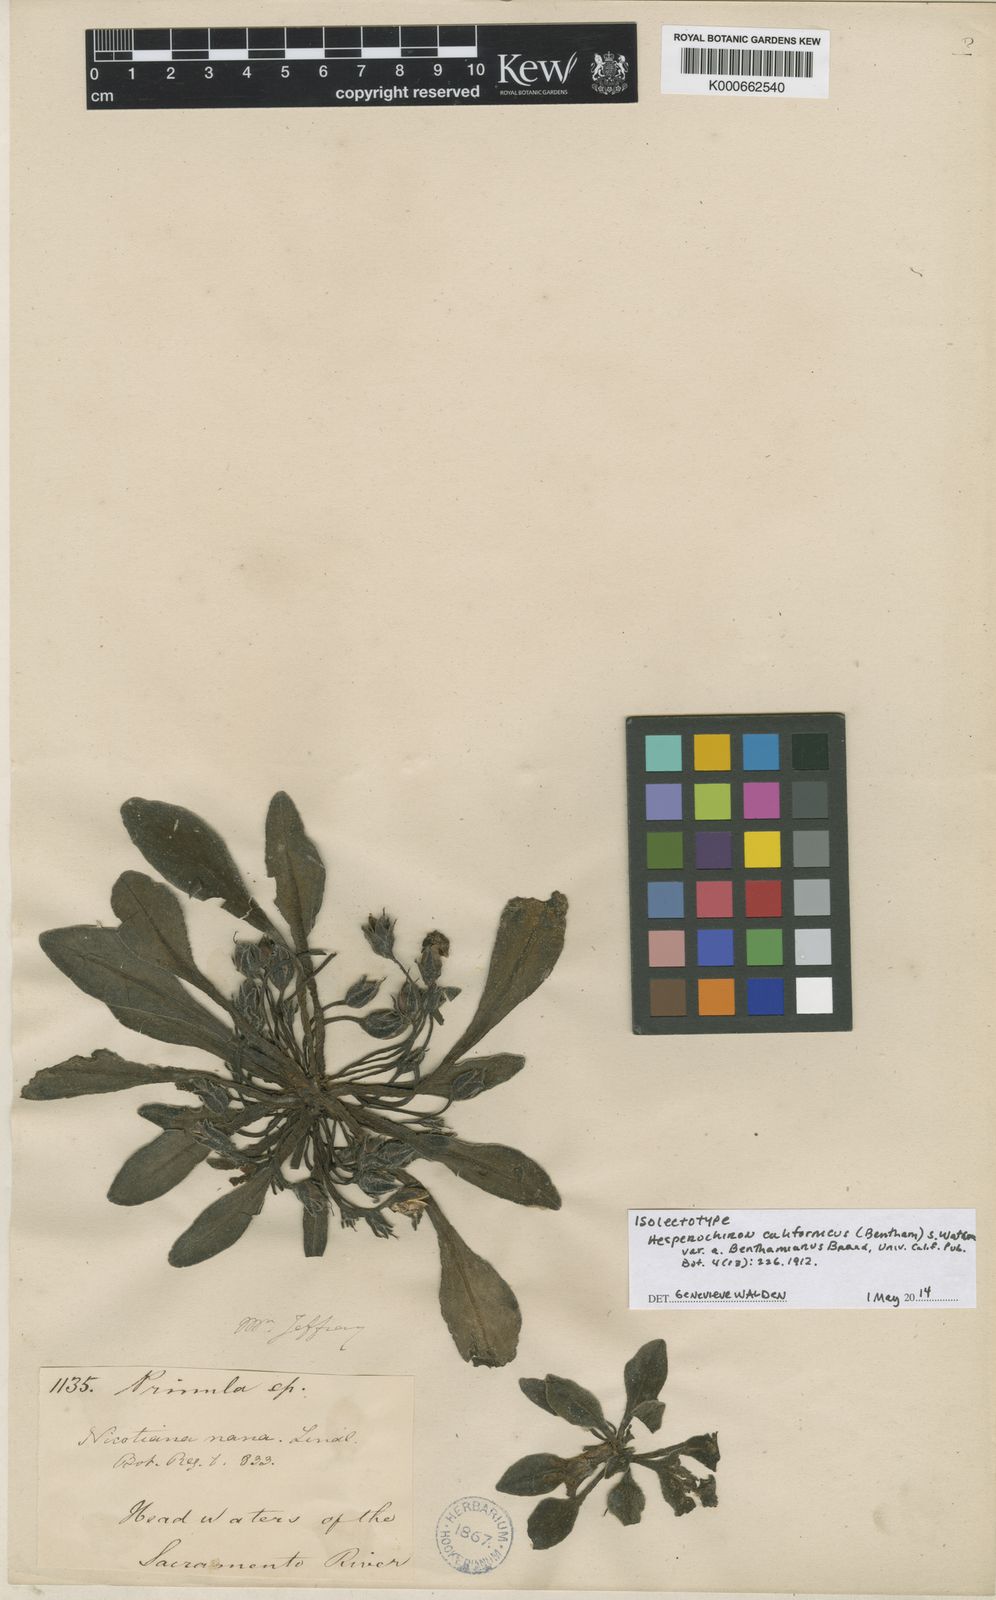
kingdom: Plantae
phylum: Tracheophyta
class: Magnoliopsida
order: Boraginales
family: Hydrophyllaceae
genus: Hesperochiron
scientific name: Hesperochiron californicus
